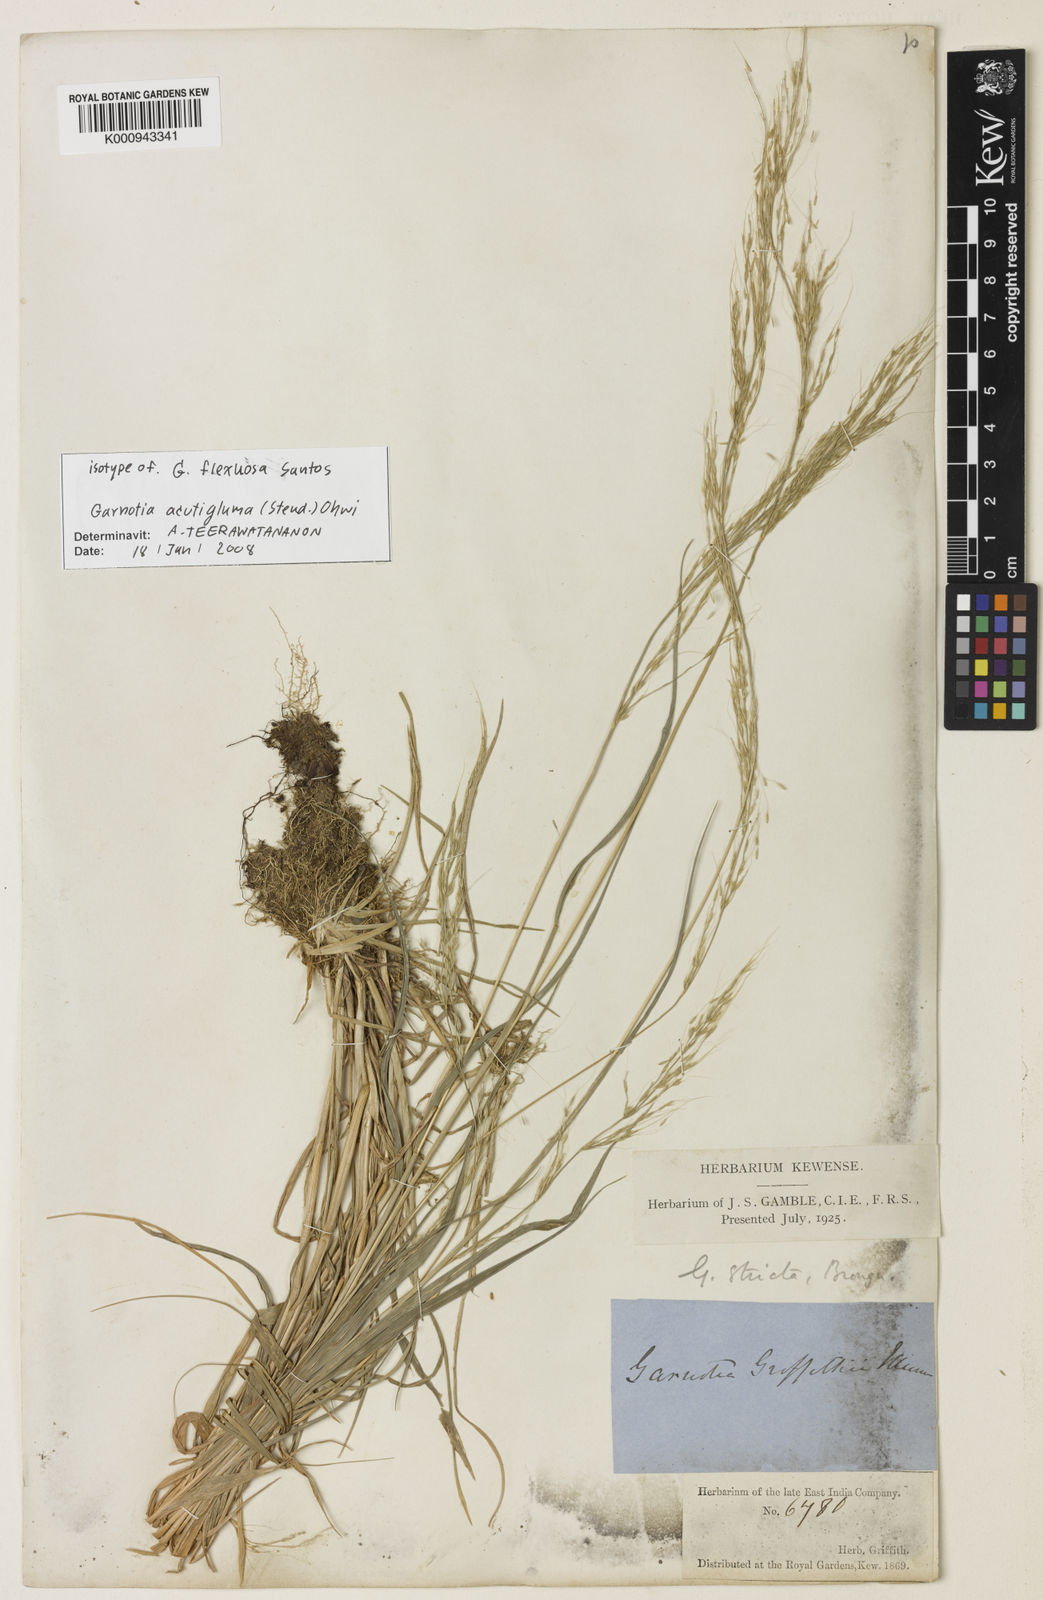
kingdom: Plantae
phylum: Tracheophyta
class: Liliopsida
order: Poales
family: Poaceae
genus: Garnotia
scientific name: Garnotia stricta
